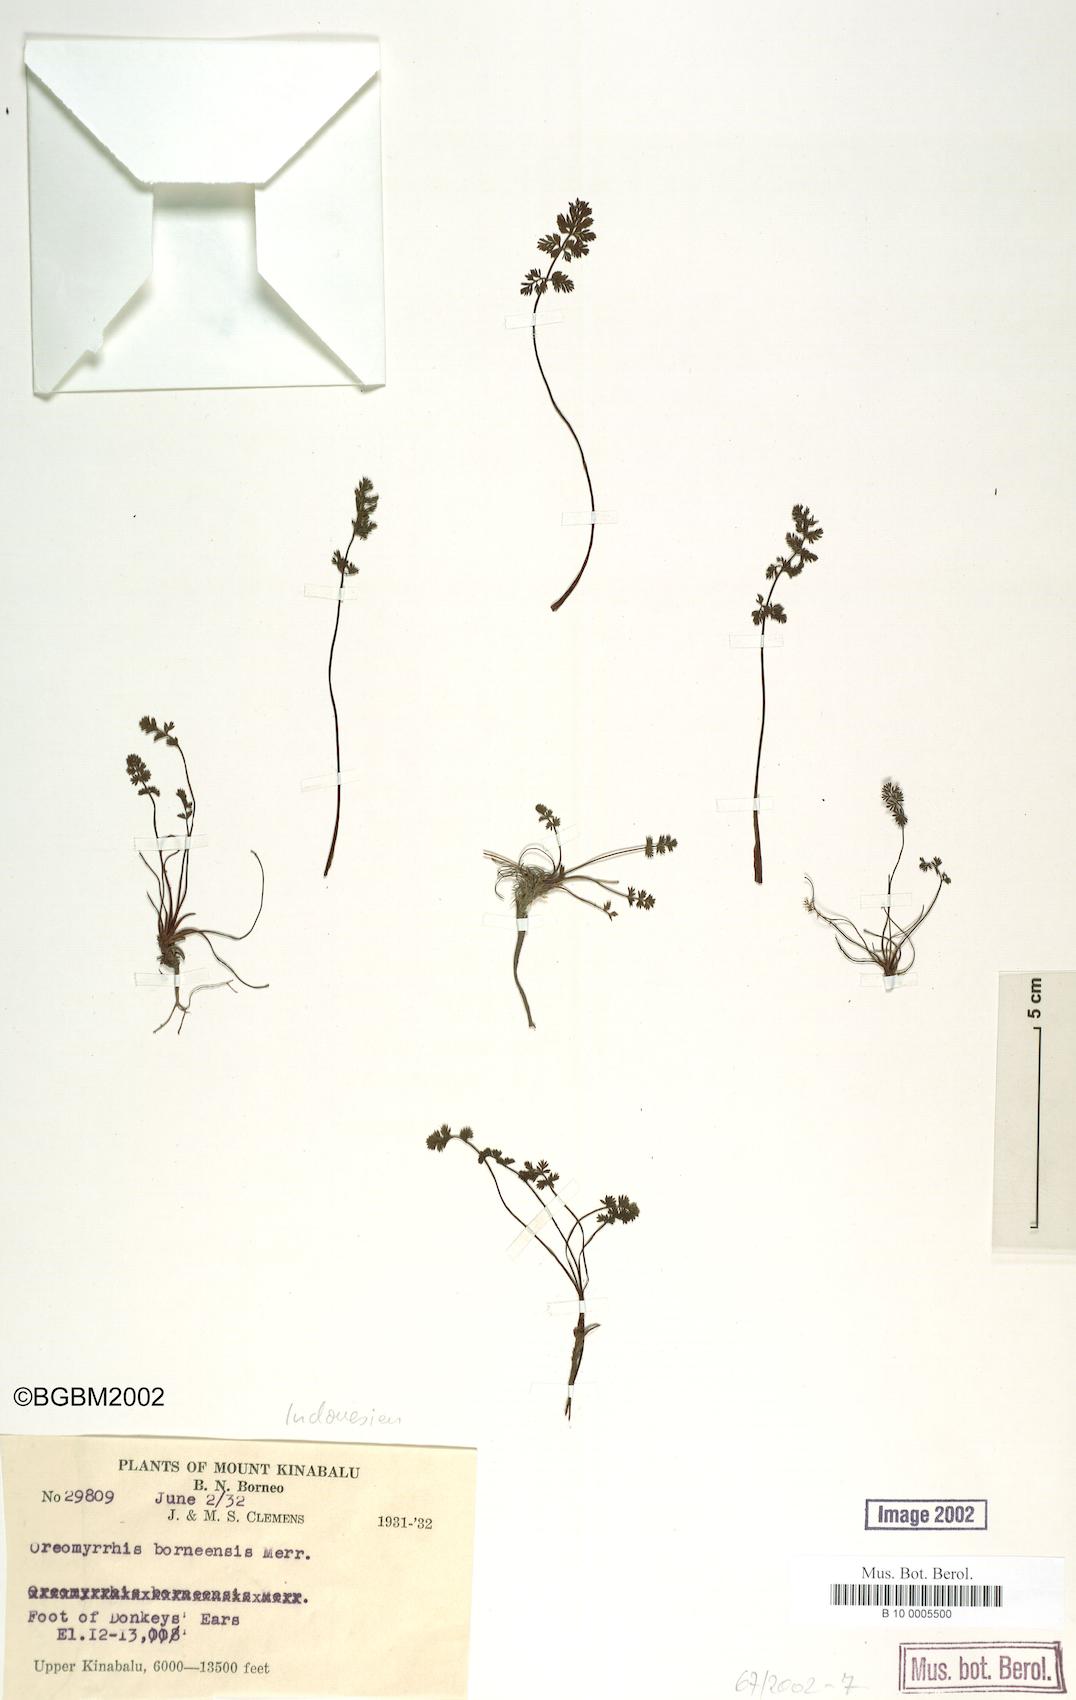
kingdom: Plantae
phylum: Tracheophyta
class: Magnoliopsida
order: Apiales
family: Apiaceae
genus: Chaerophyllum
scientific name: Chaerophyllum borneense
